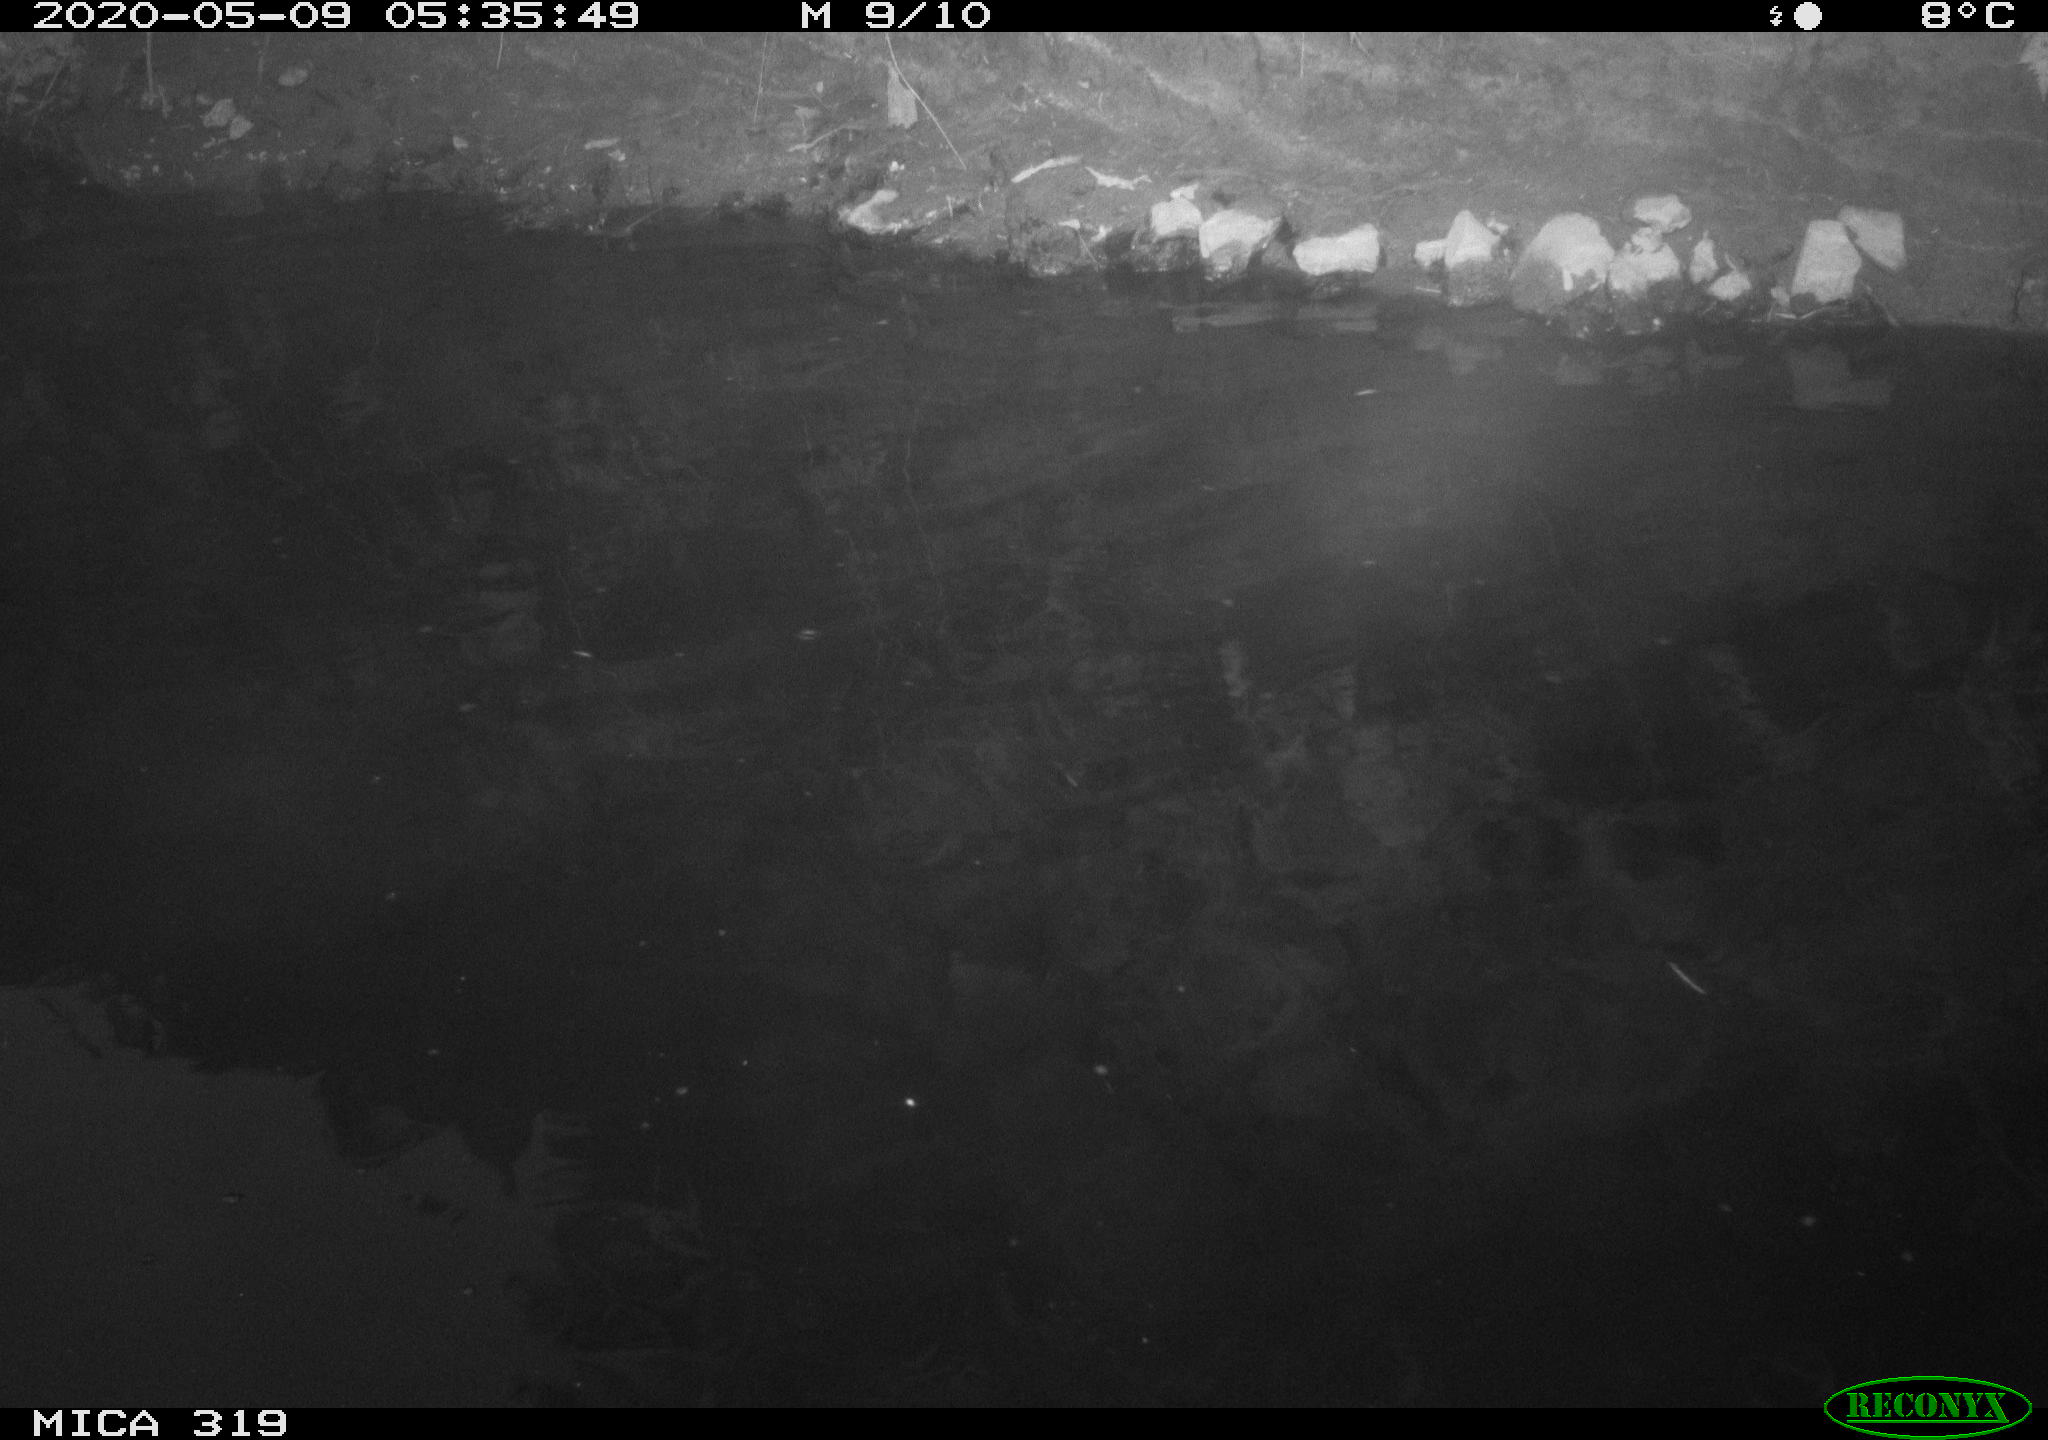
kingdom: Animalia
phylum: Chordata
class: Aves
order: Anseriformes
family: Anatidae
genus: Anas
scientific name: Anas platyrhynchos
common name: Mallard
